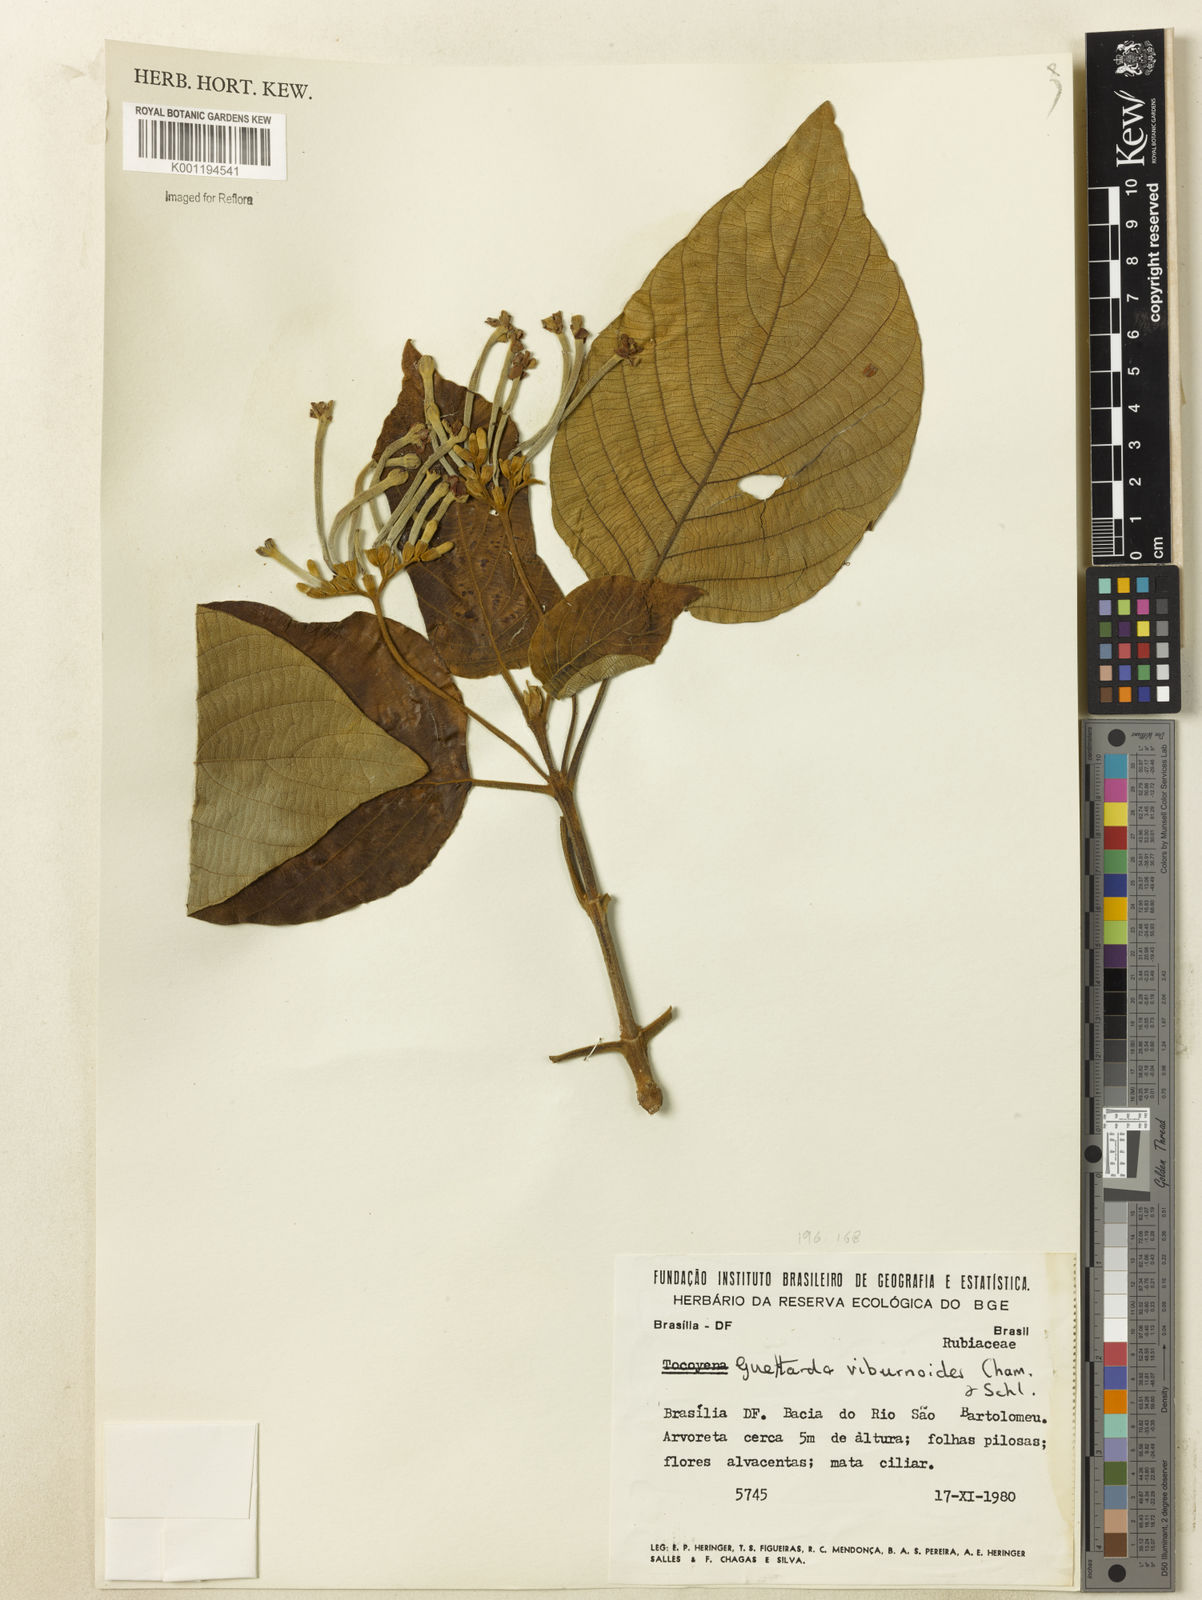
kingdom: Plantae
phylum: Tracheophyta
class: Magnoliopsida
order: Gentianales
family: Rubiaceae
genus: Guettarda
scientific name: Guettarda viburnoides
